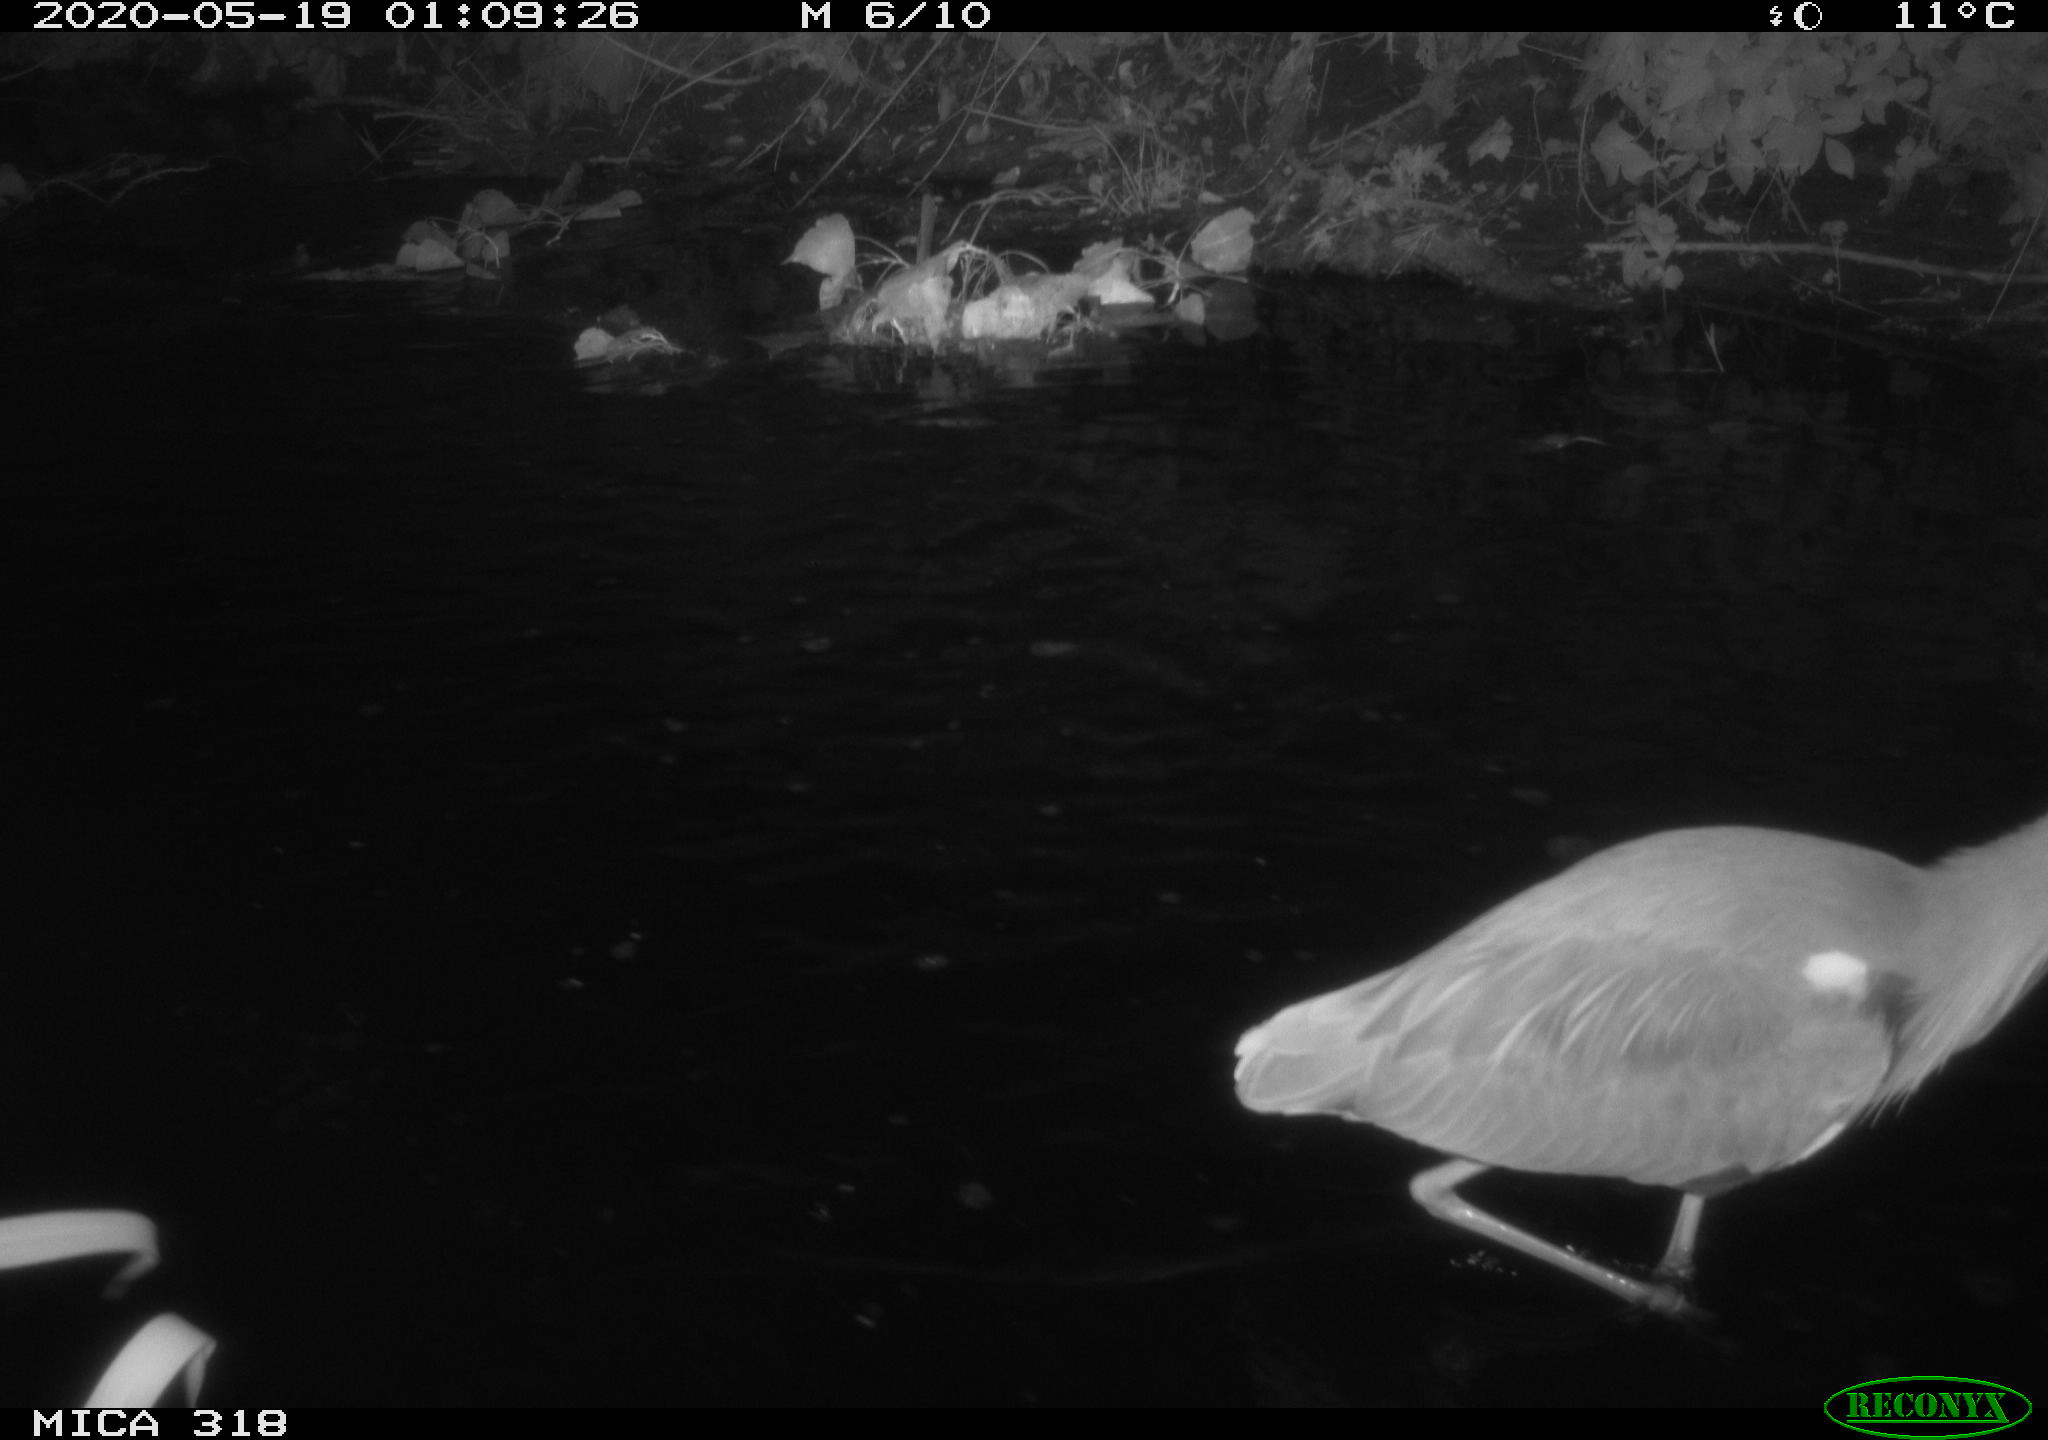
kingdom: Animalia
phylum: Chordata
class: Aves
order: Pelecaniformes
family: Ardeidae
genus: Ardea
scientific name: Ardea cinerea
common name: Grey heron
